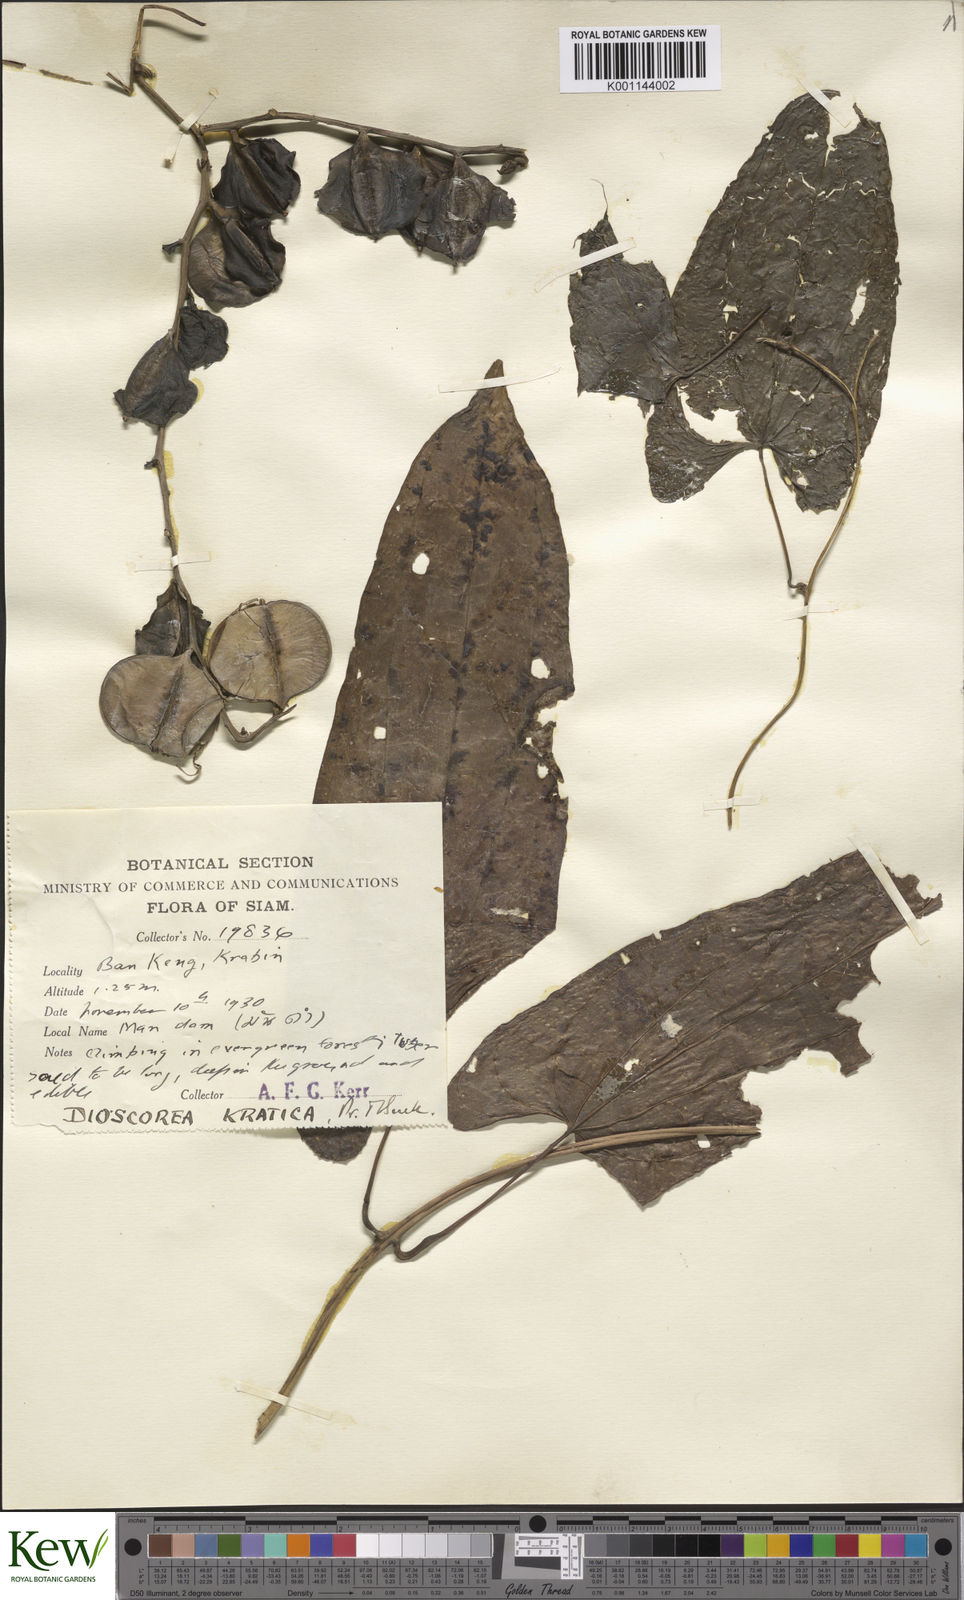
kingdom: Plantae
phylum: Tracheophyta
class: Liliopsida
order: Dioscoreales
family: Dioscoreaceae
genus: Dioscorea
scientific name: Dioscorea kratica
